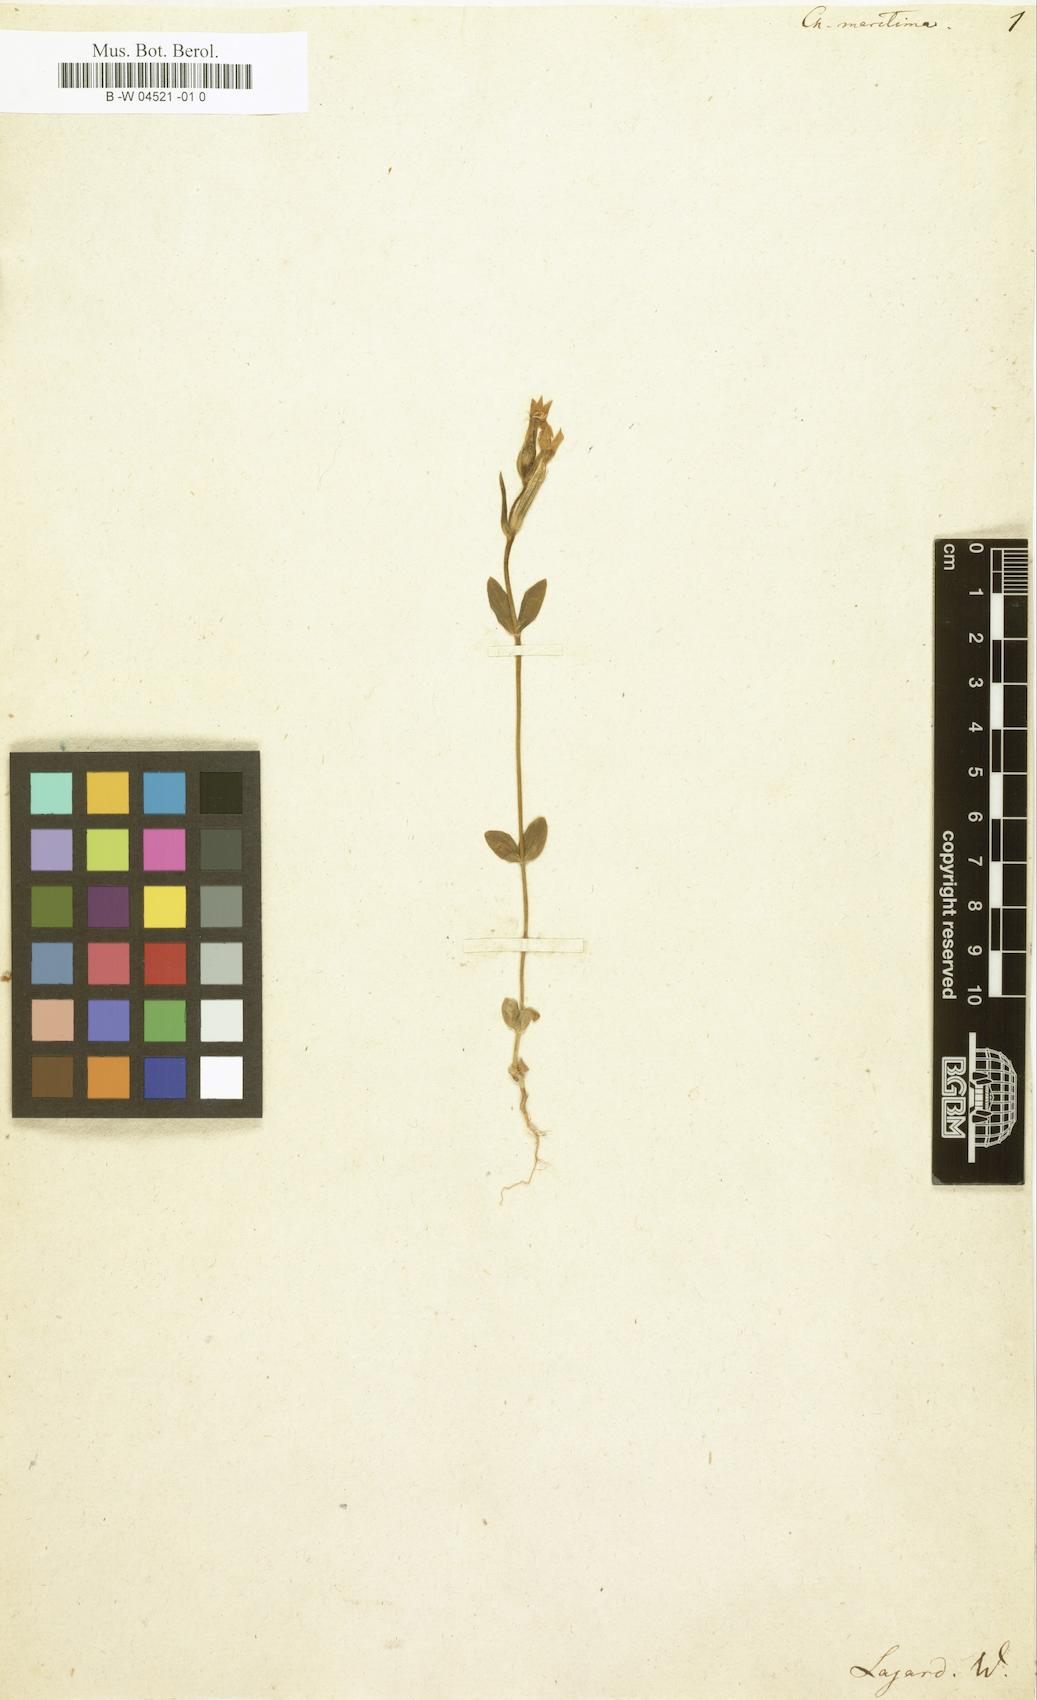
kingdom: Plantae
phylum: Tracheophyta
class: Magnoliopsida
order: Gentianales
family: Gentianaceae
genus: Centaurium
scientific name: Centaurium maritimum
